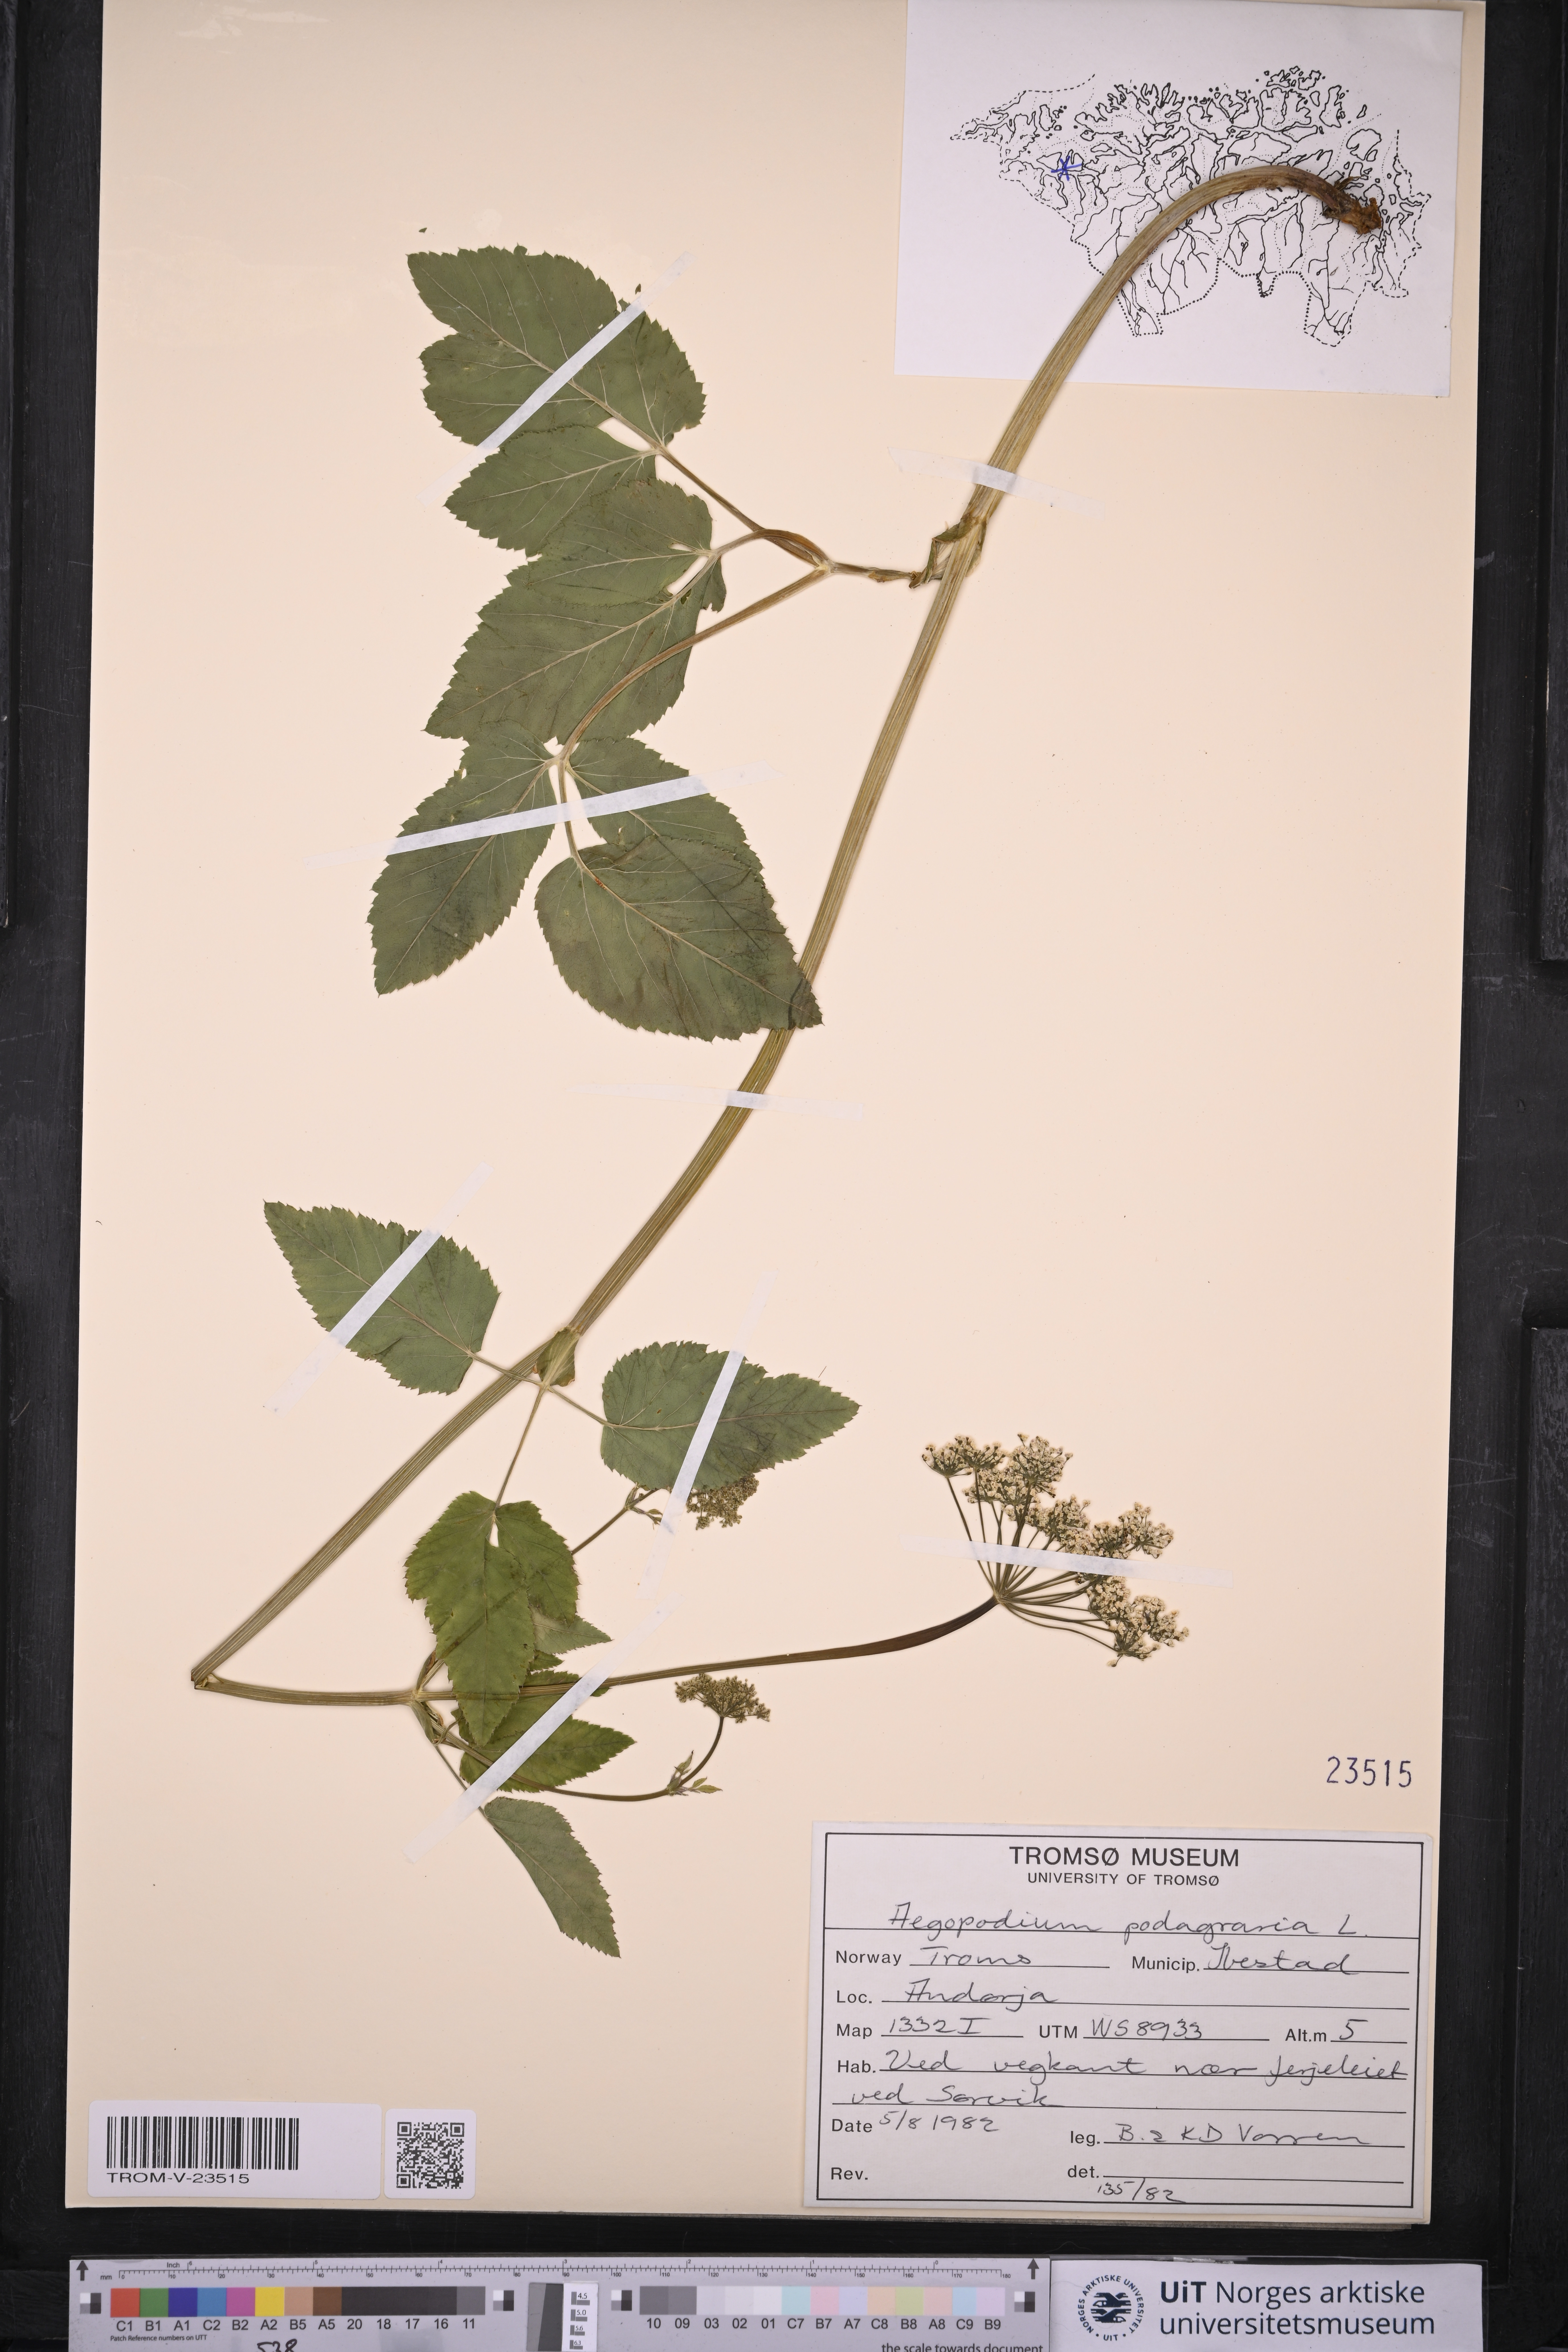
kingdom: Plantae
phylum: Tracheophyta
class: Magnoliopsida
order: Apiales
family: Apiaceae
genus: Aegopodium
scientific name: Aegopodium podagraria
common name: Ground-elder
